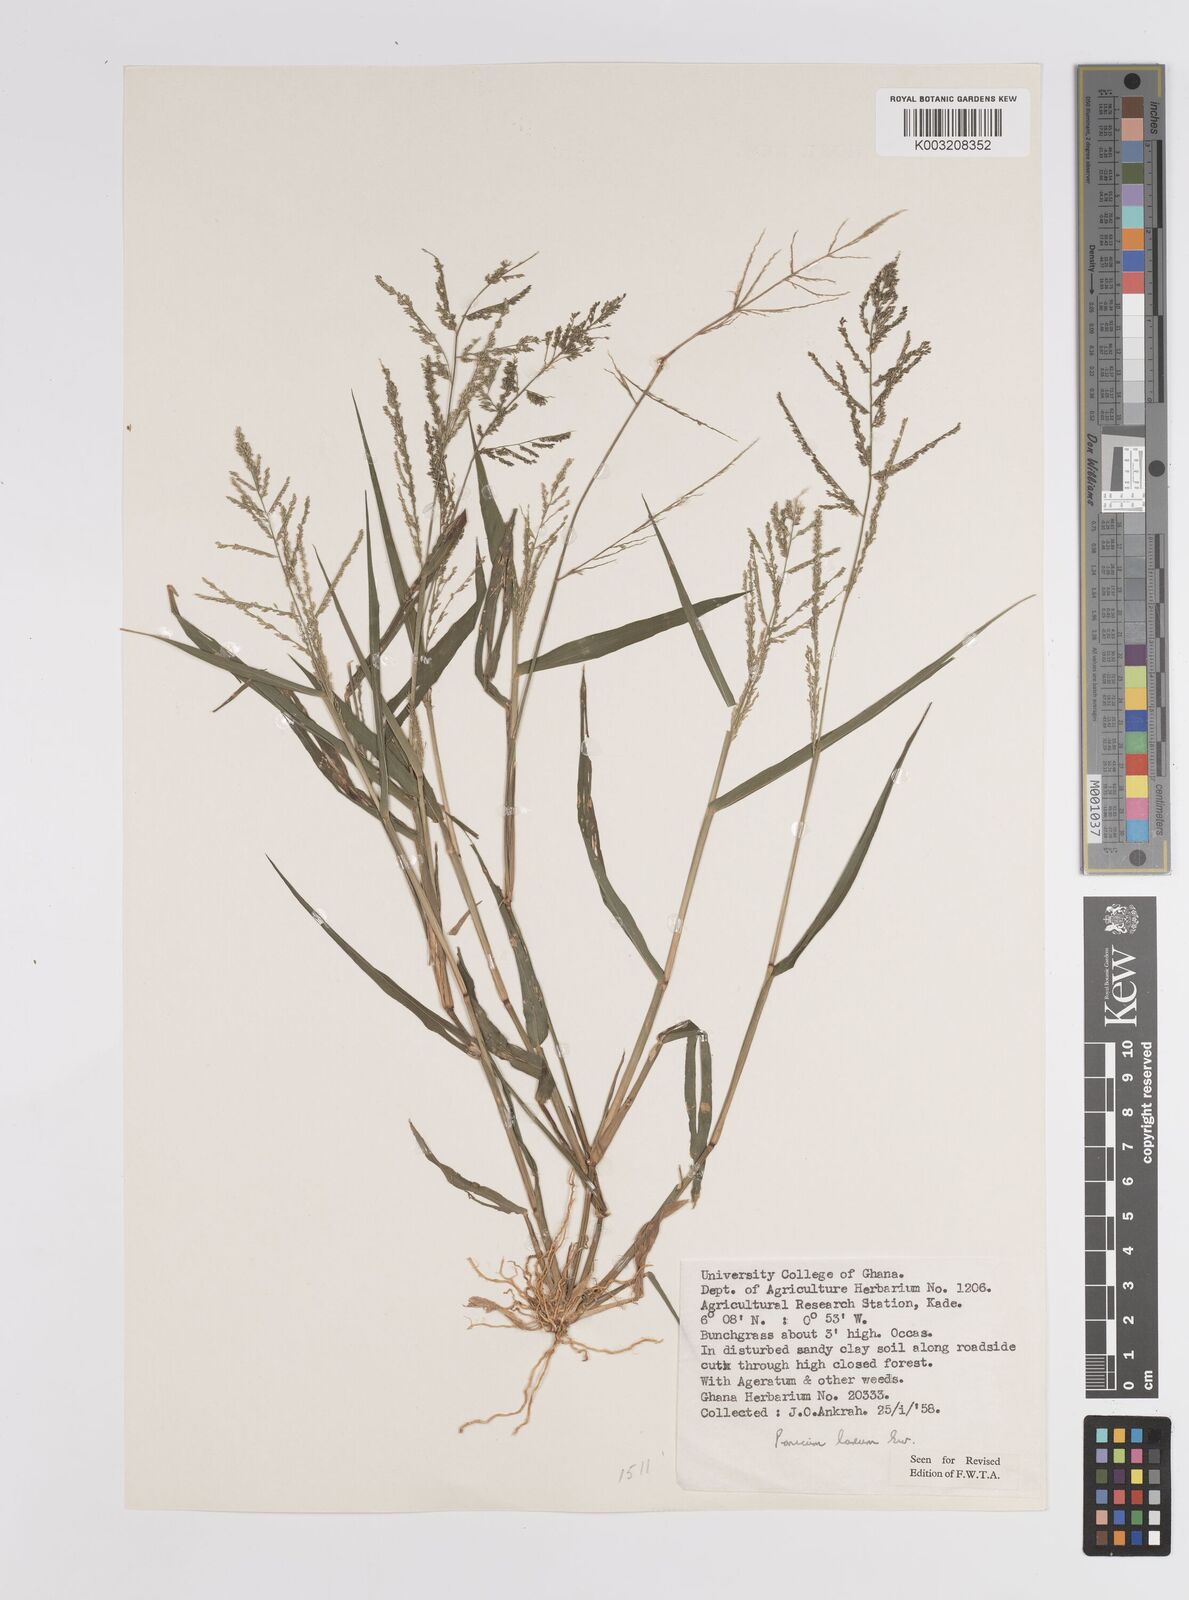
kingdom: Plantae
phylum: Tracheophyta
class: Liliopsida
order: Poales
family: Poaceae
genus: Steinchisma
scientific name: Steinchisma laxum
